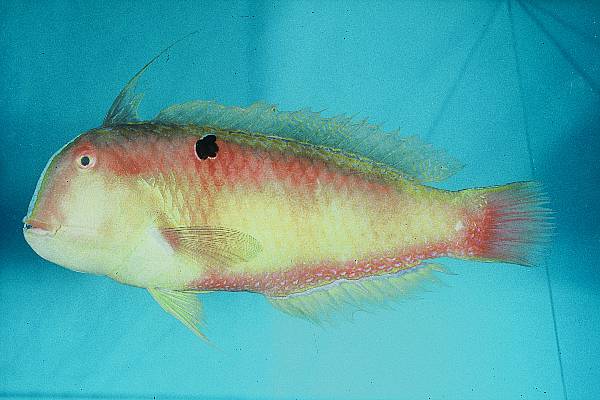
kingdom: Animalia
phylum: Chordata
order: Perciformes
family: Labridae
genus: Iniistius
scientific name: Iniistius evides
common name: Blackspot razorfish
